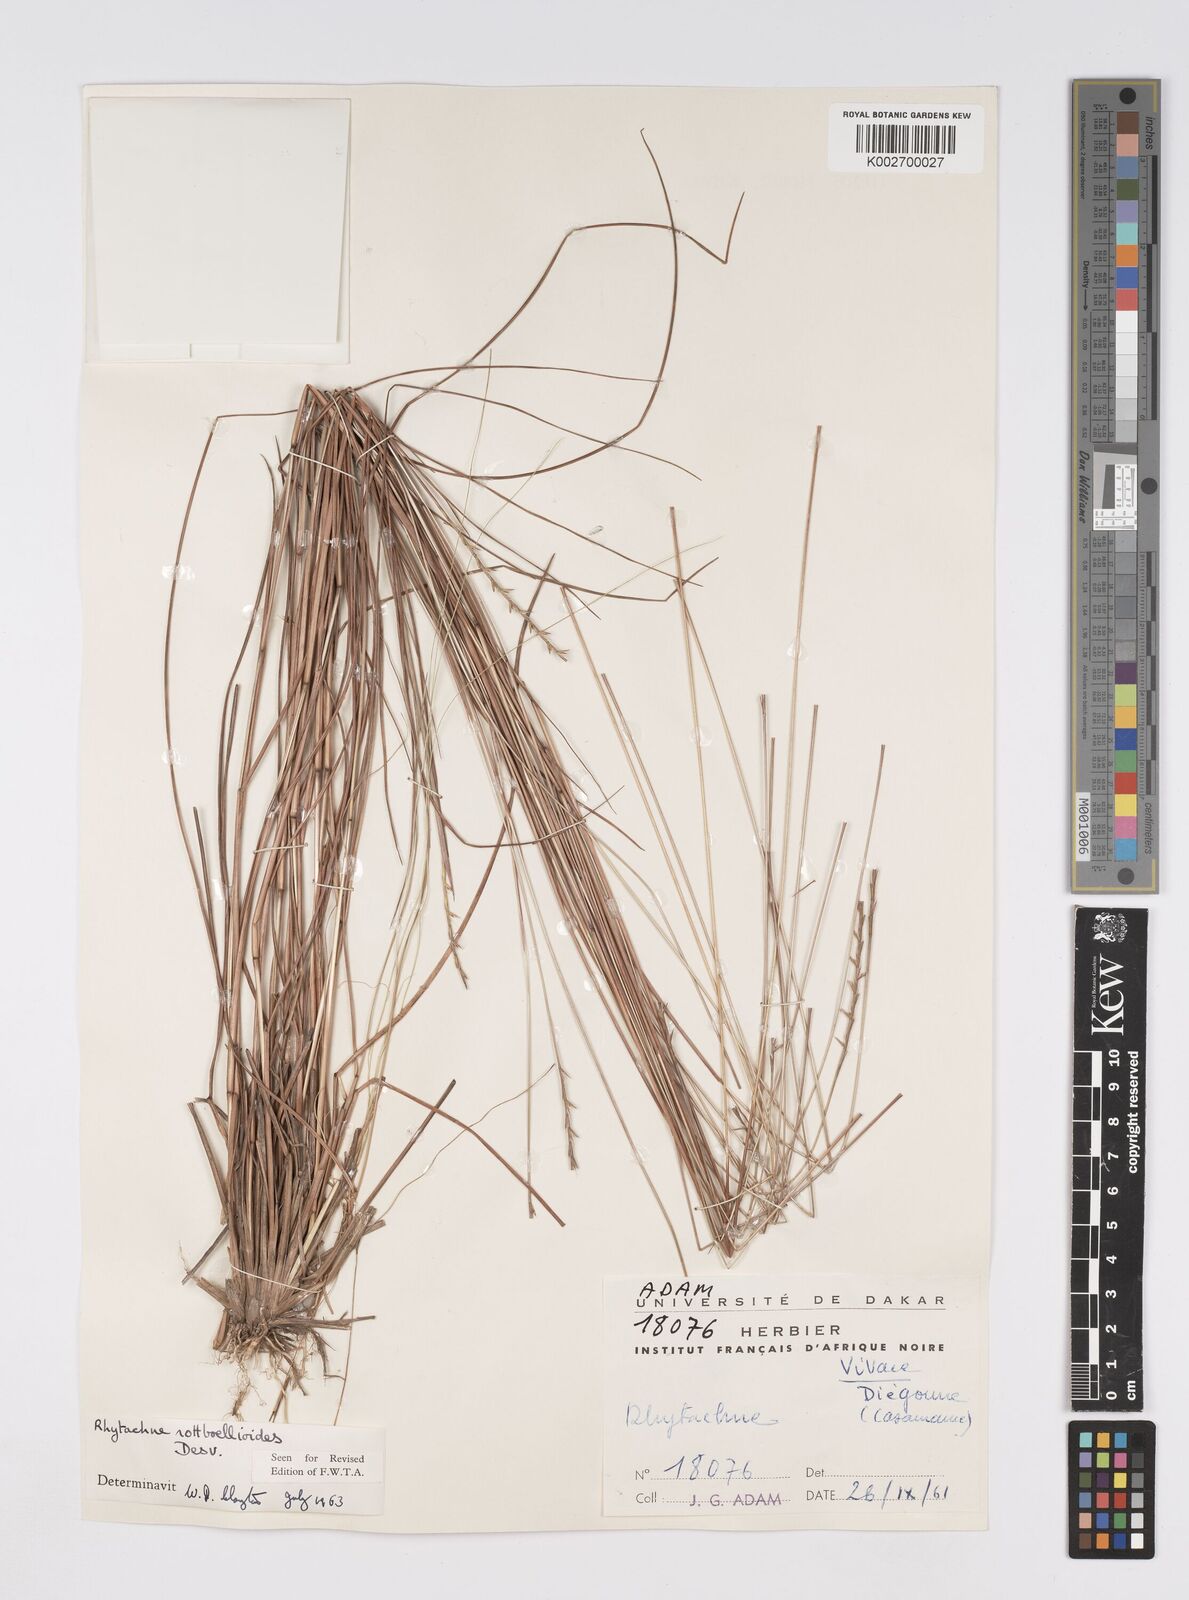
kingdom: Plantae
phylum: Tracheophyta
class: Liliopsida
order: Poales
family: Poaceae
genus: Rhytachne
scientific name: Rhytachne rottboellioides
